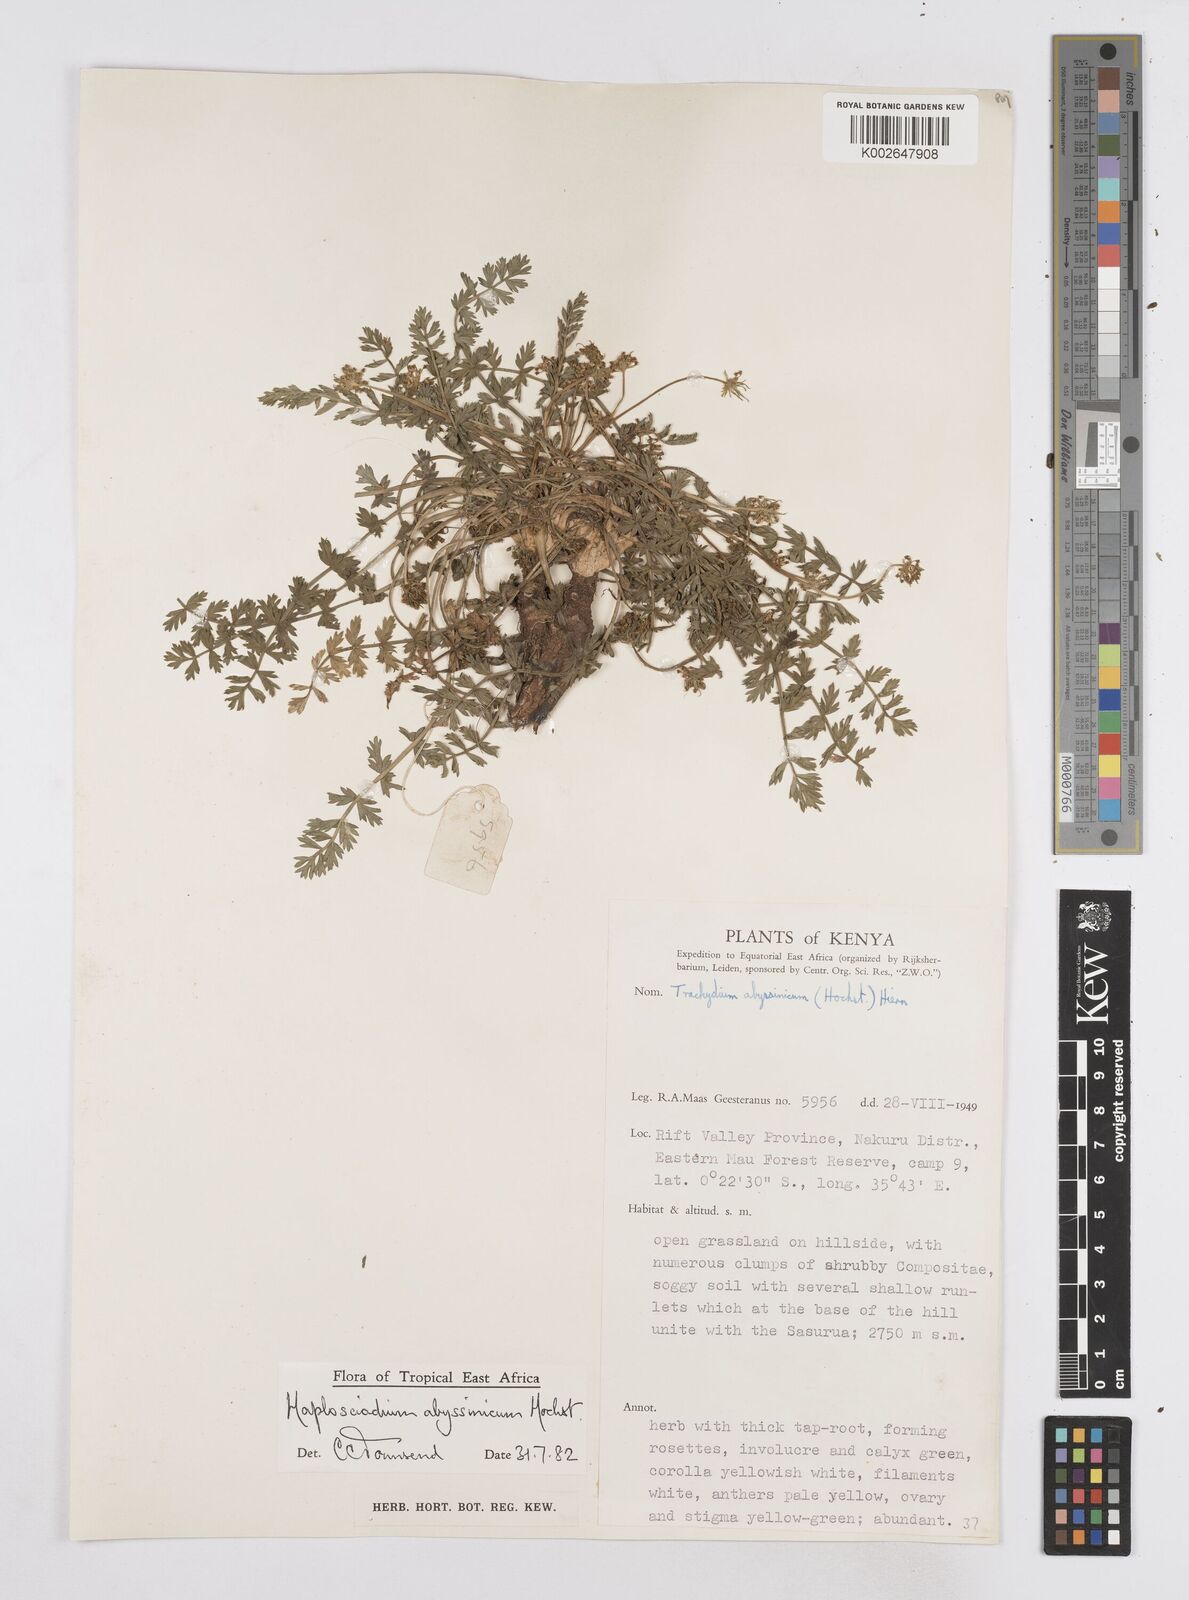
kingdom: Plantae
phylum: Tracheophyta
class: Magnoliopsida
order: Apiales
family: Apiaceae
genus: Haplosciadium
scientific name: Haplosciadium abyssinicum
